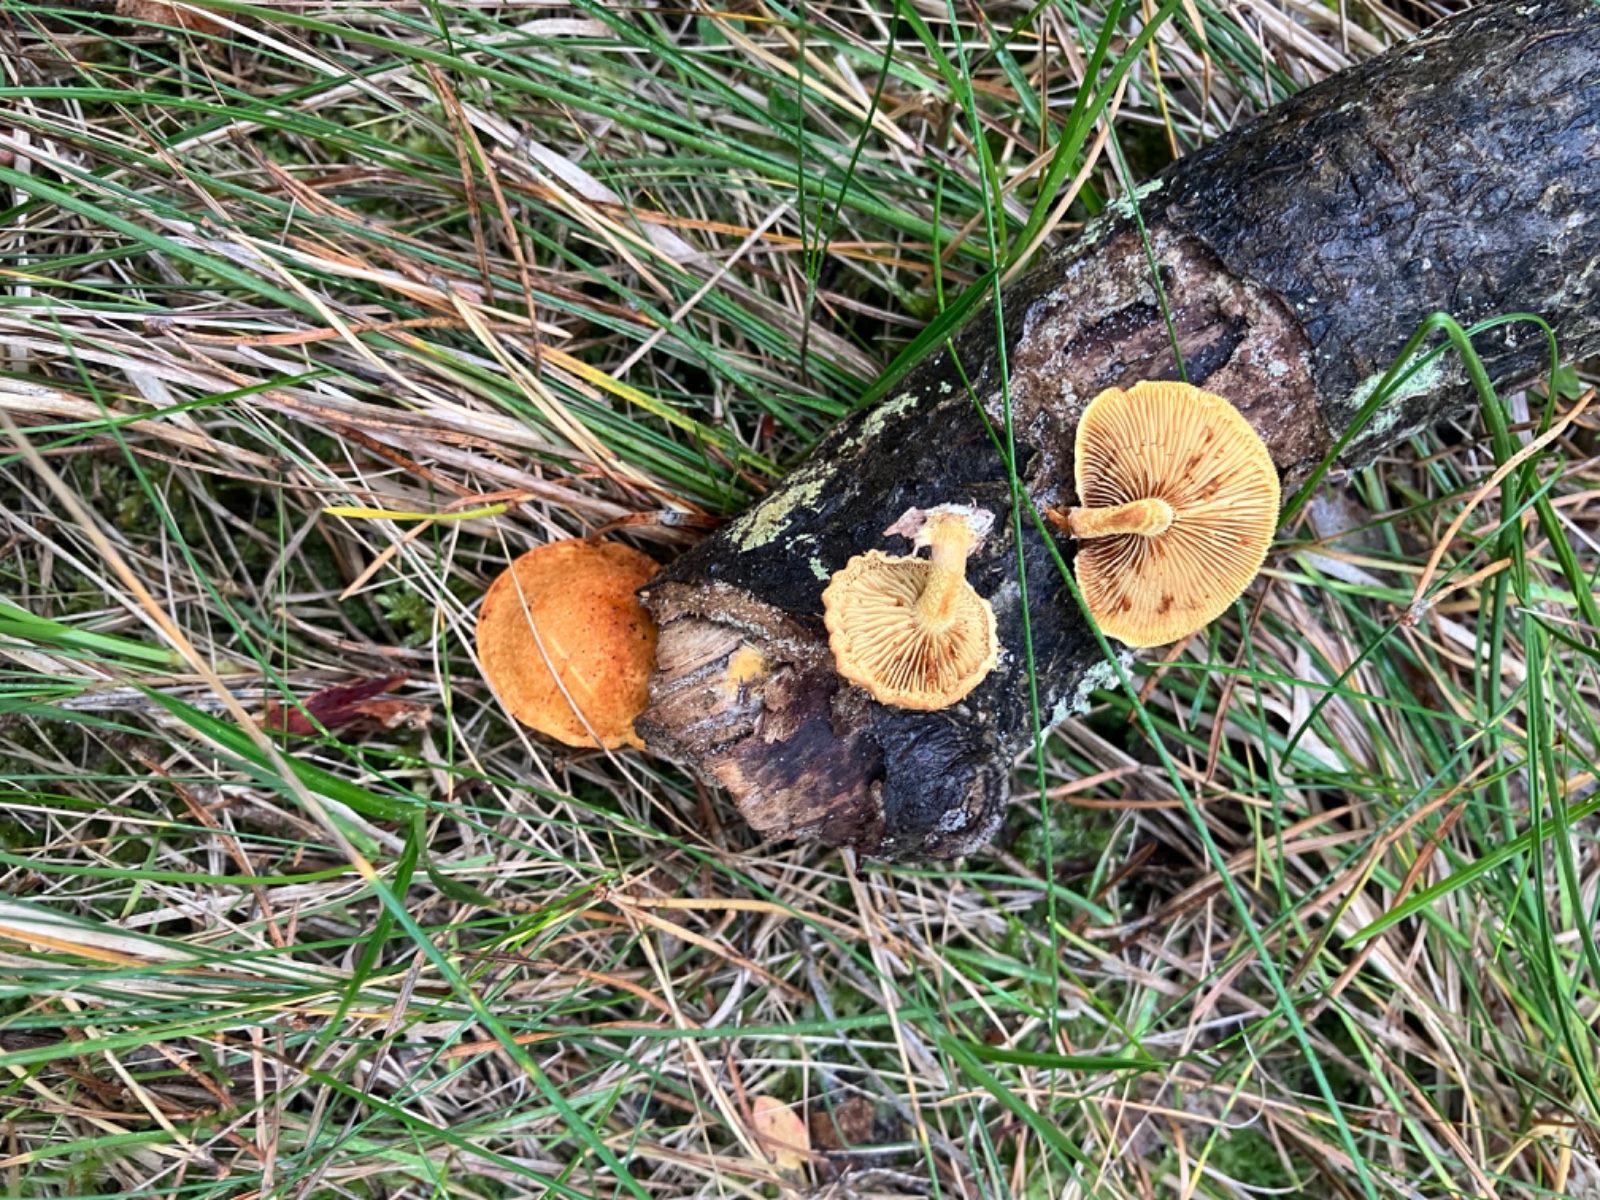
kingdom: Fungi
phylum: Basidiomycota
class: Agaricomycetes
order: Agaricales
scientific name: Agaricales
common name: champignonordenen
